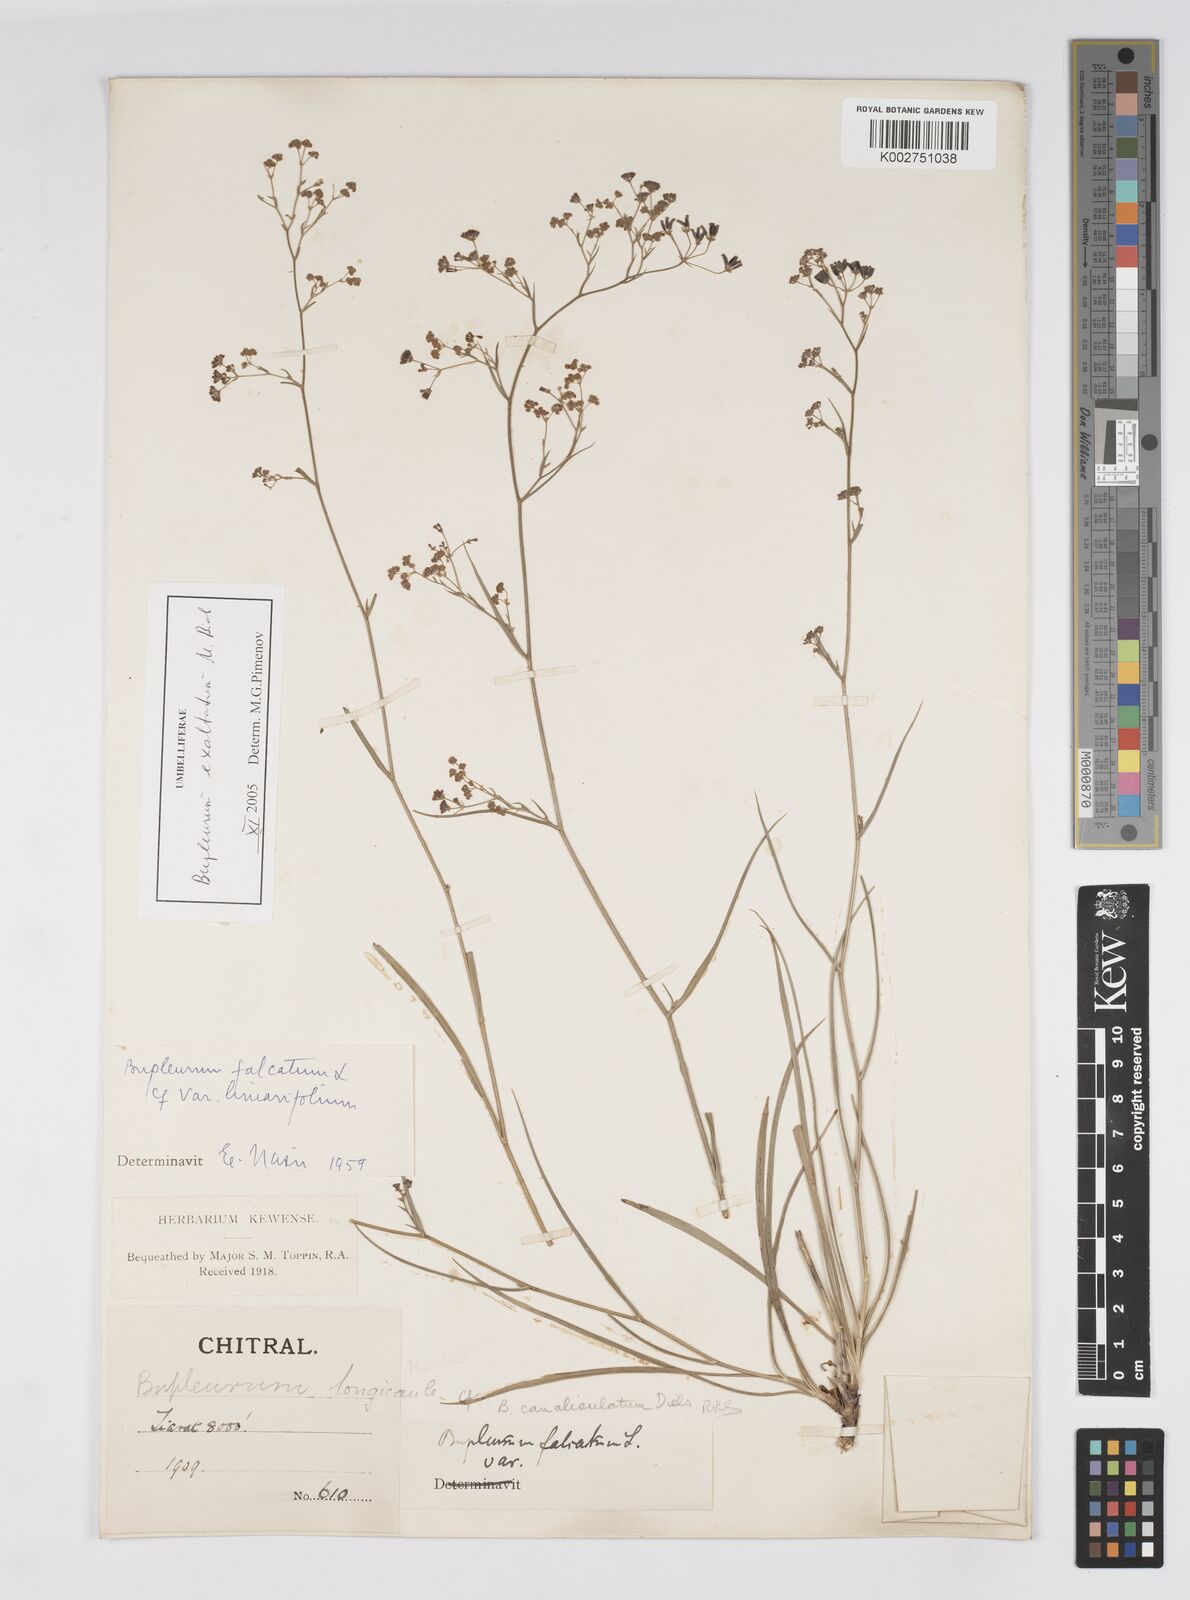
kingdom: Plantae
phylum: Tracheophyta
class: Magnoliopsida
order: Apiales
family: Apiaceae
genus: Bupleurum
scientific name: Bupleurum falcatum
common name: Sickle-leaved hare's-ear
